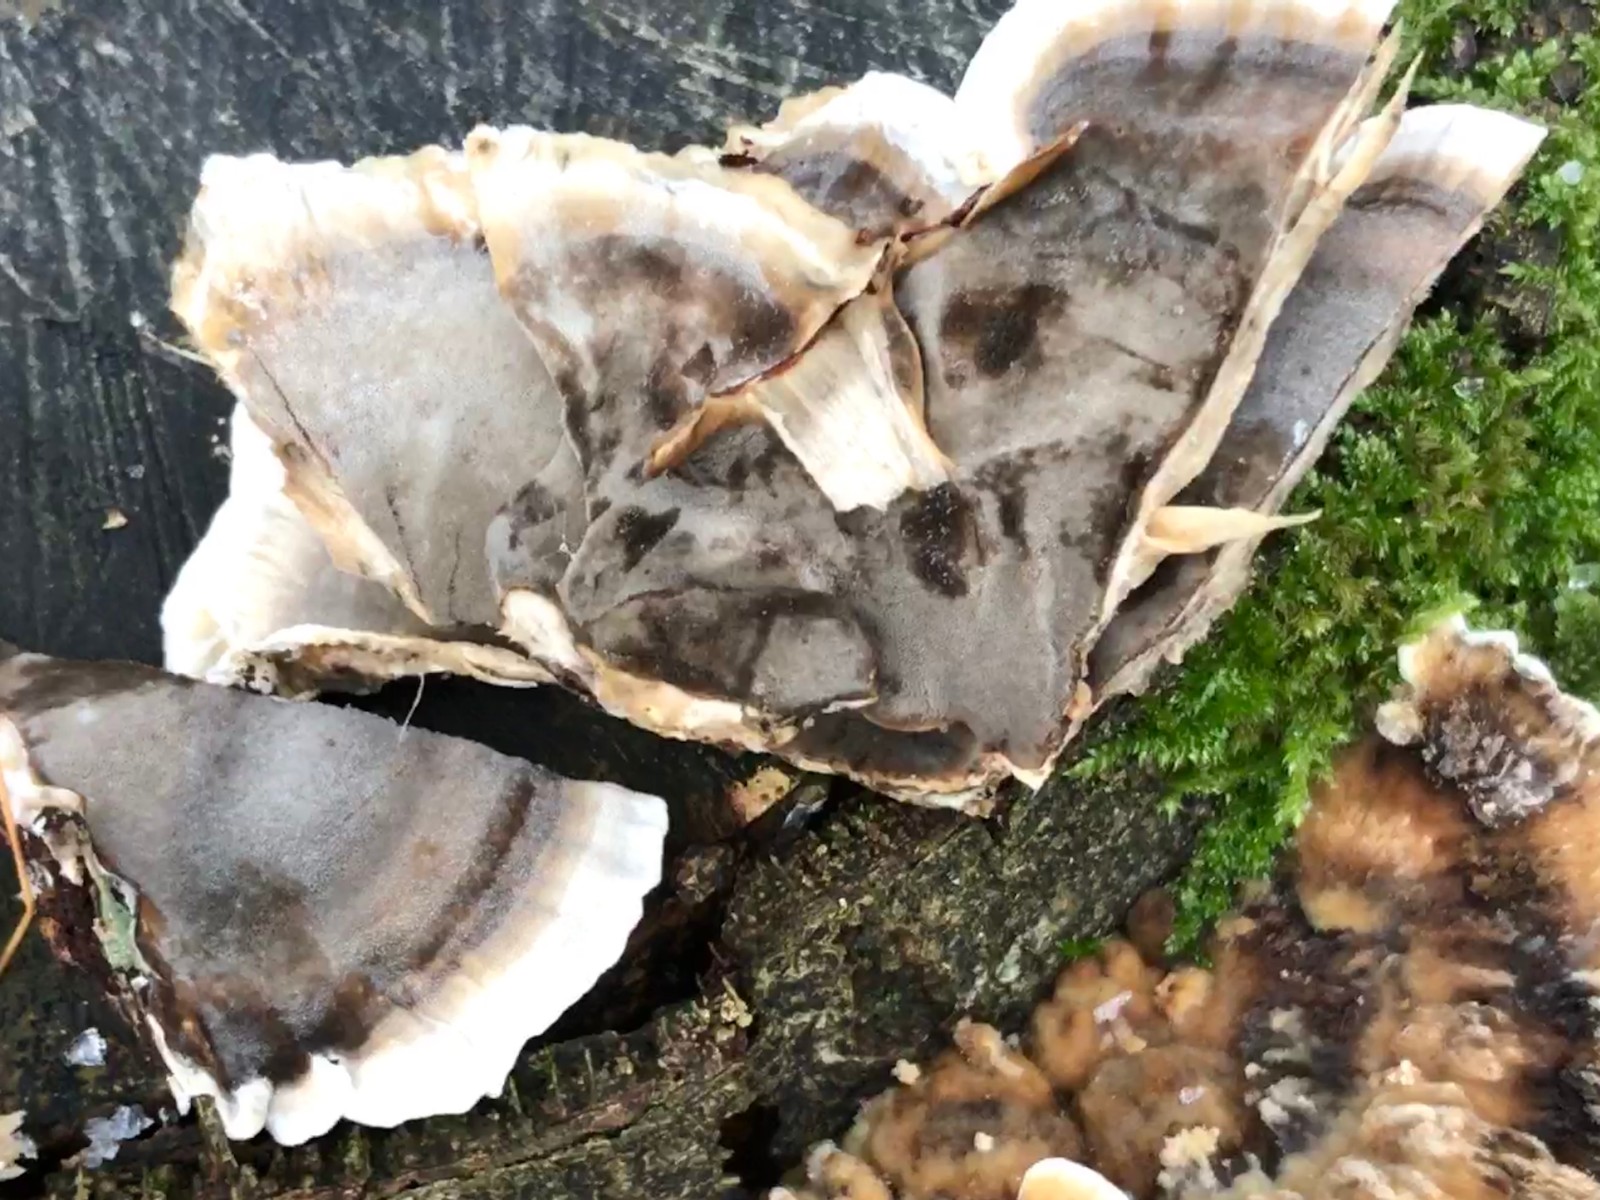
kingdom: Fungi
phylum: Basidiomycota
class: Agaricomycetes
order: Polyporales
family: Phanerochaetaceae
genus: Bjerkandera
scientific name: Bjerkandera adusta
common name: sveden sodporesvamp
